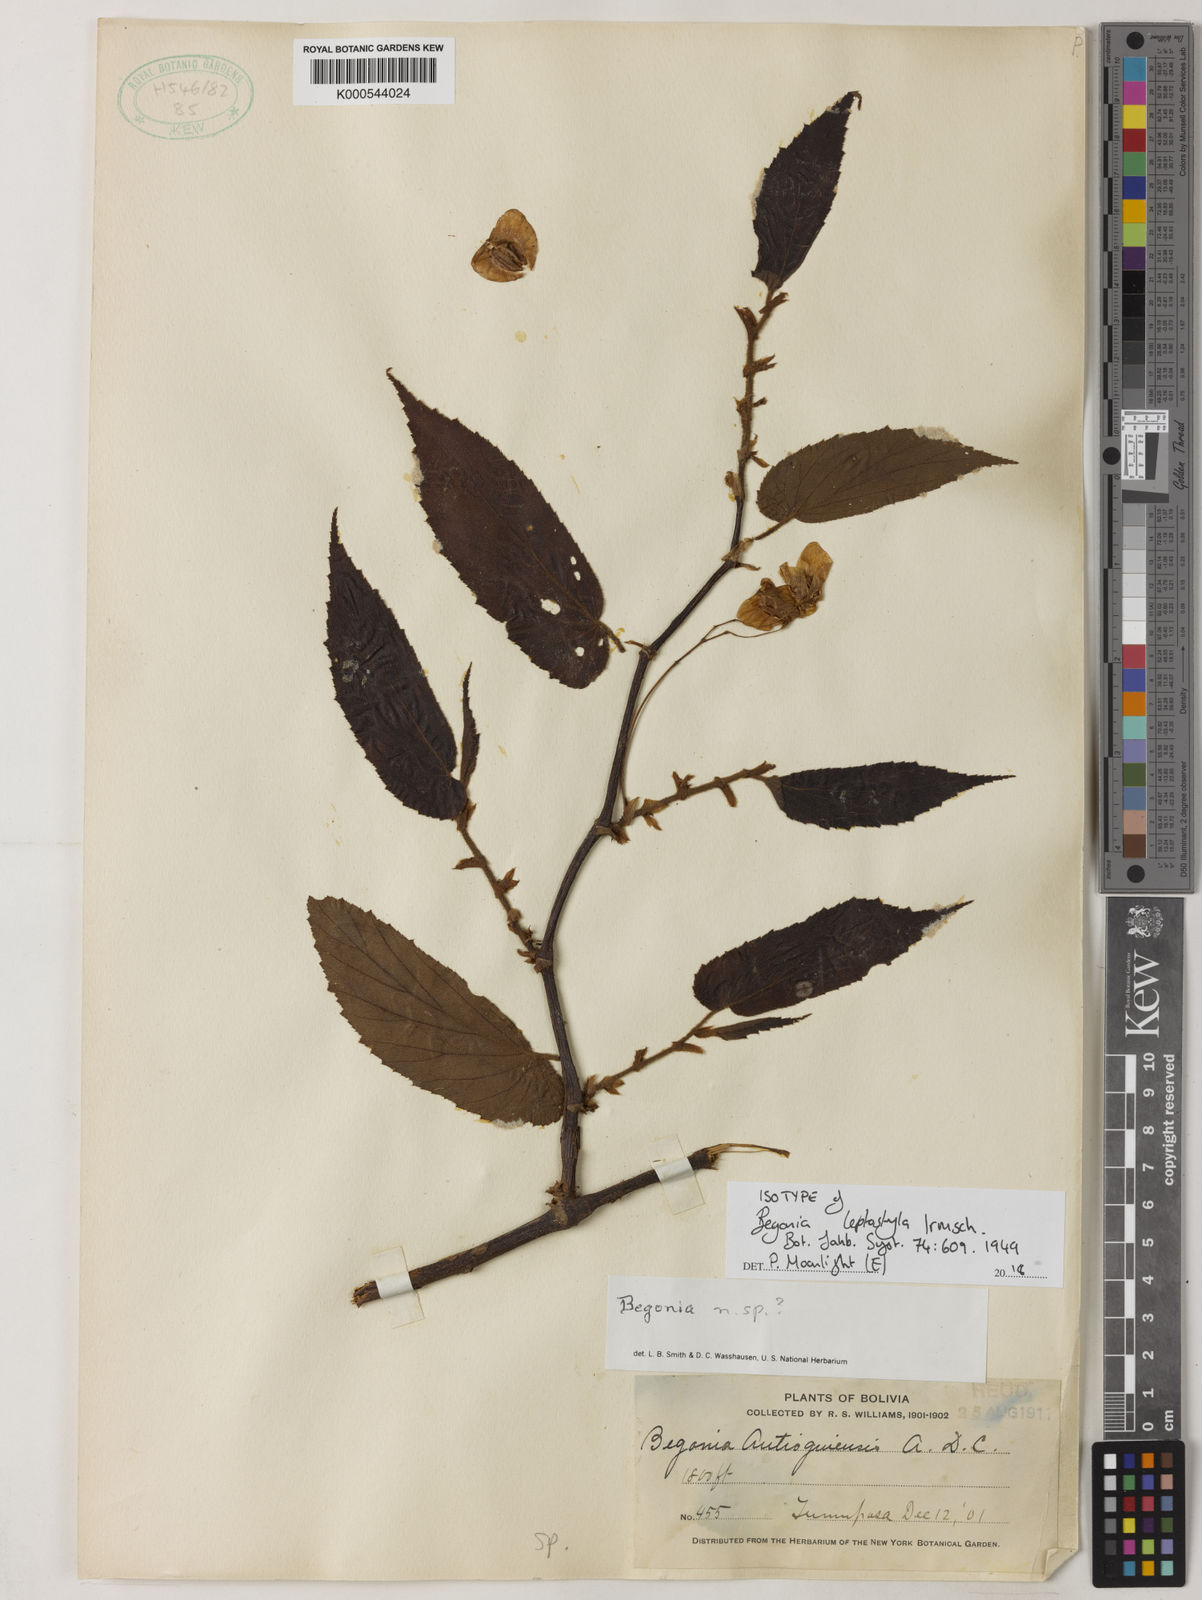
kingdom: Plantae
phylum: Tracheophyta
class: Magnoliopsida
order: Cucurbitales
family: Begoniaceae
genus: Begonia
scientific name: Begonia leptostyla
